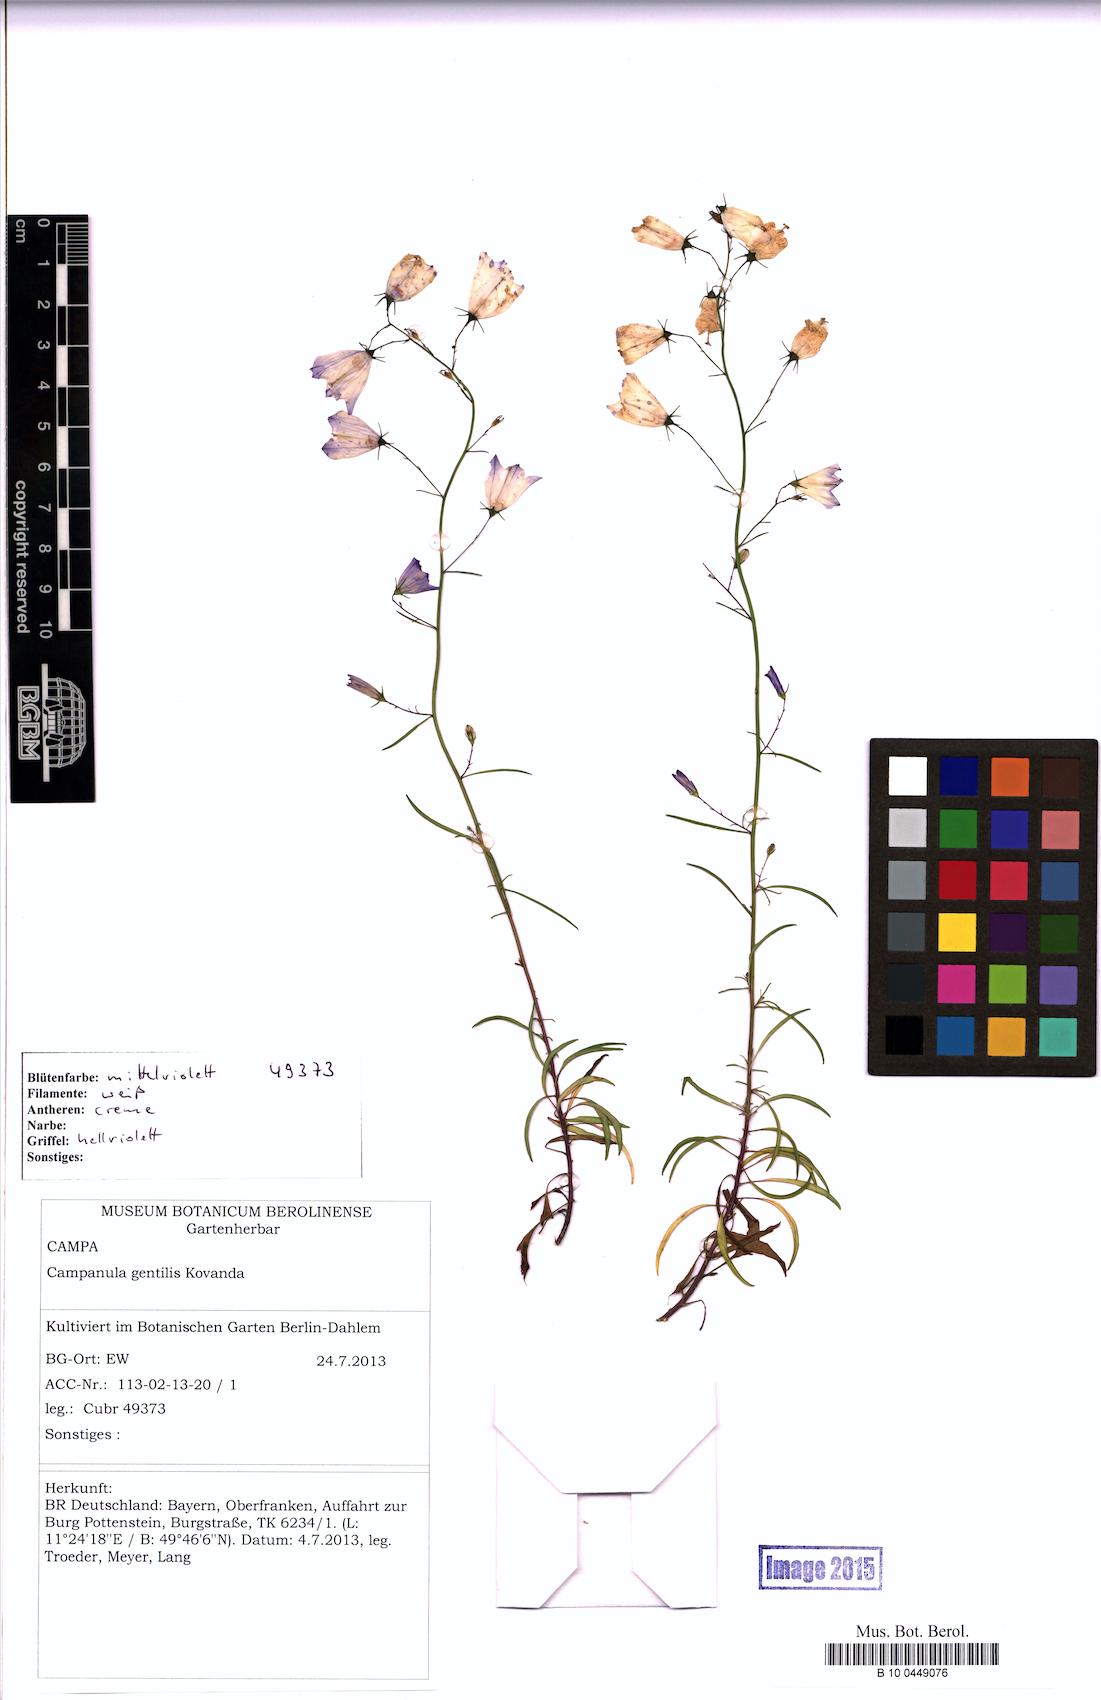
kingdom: Plantae
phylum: Tracheophyta
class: Magnoliopsida
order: Asterales
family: Campanulaceae
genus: Campanula
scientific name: Campanula gentilis
